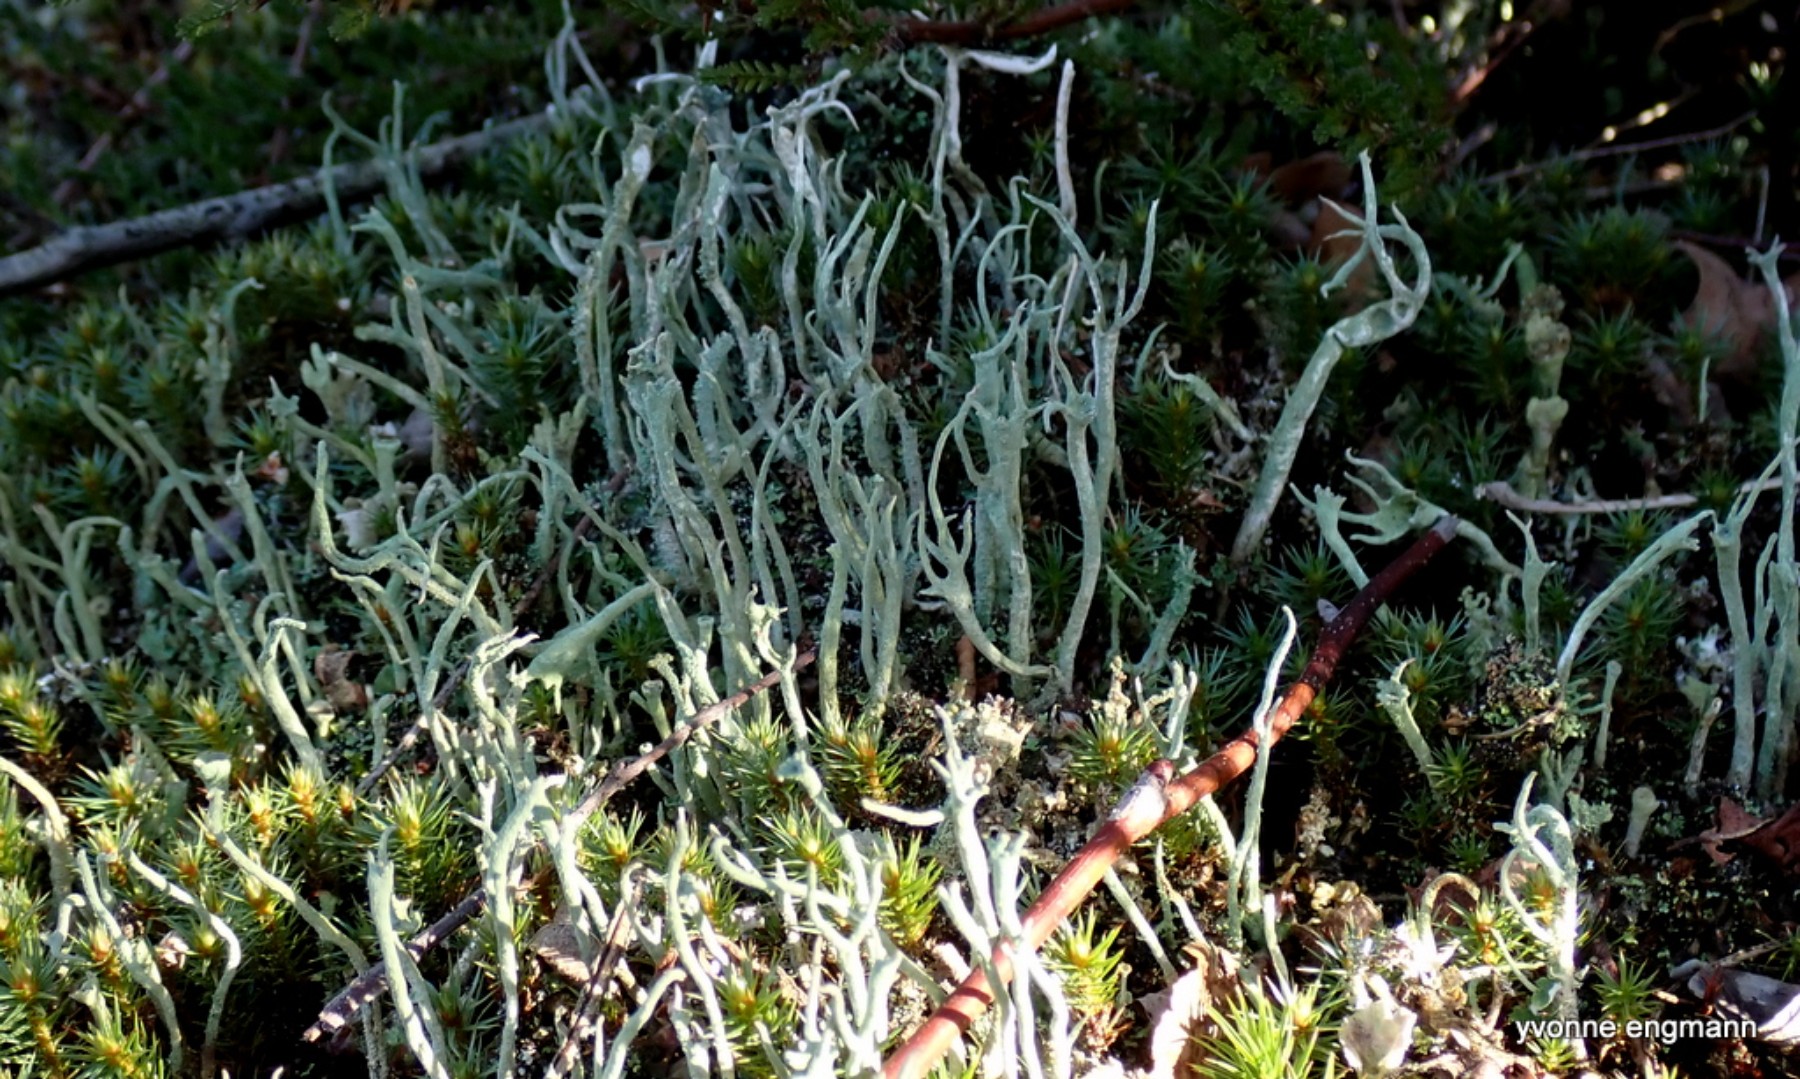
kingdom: Fungi
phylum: Ascomycota
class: Lecanoromycetes
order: Lecanorales
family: Cladoniaceae
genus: Cladonia
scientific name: Cladonia subulata
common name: spids bægerlav
